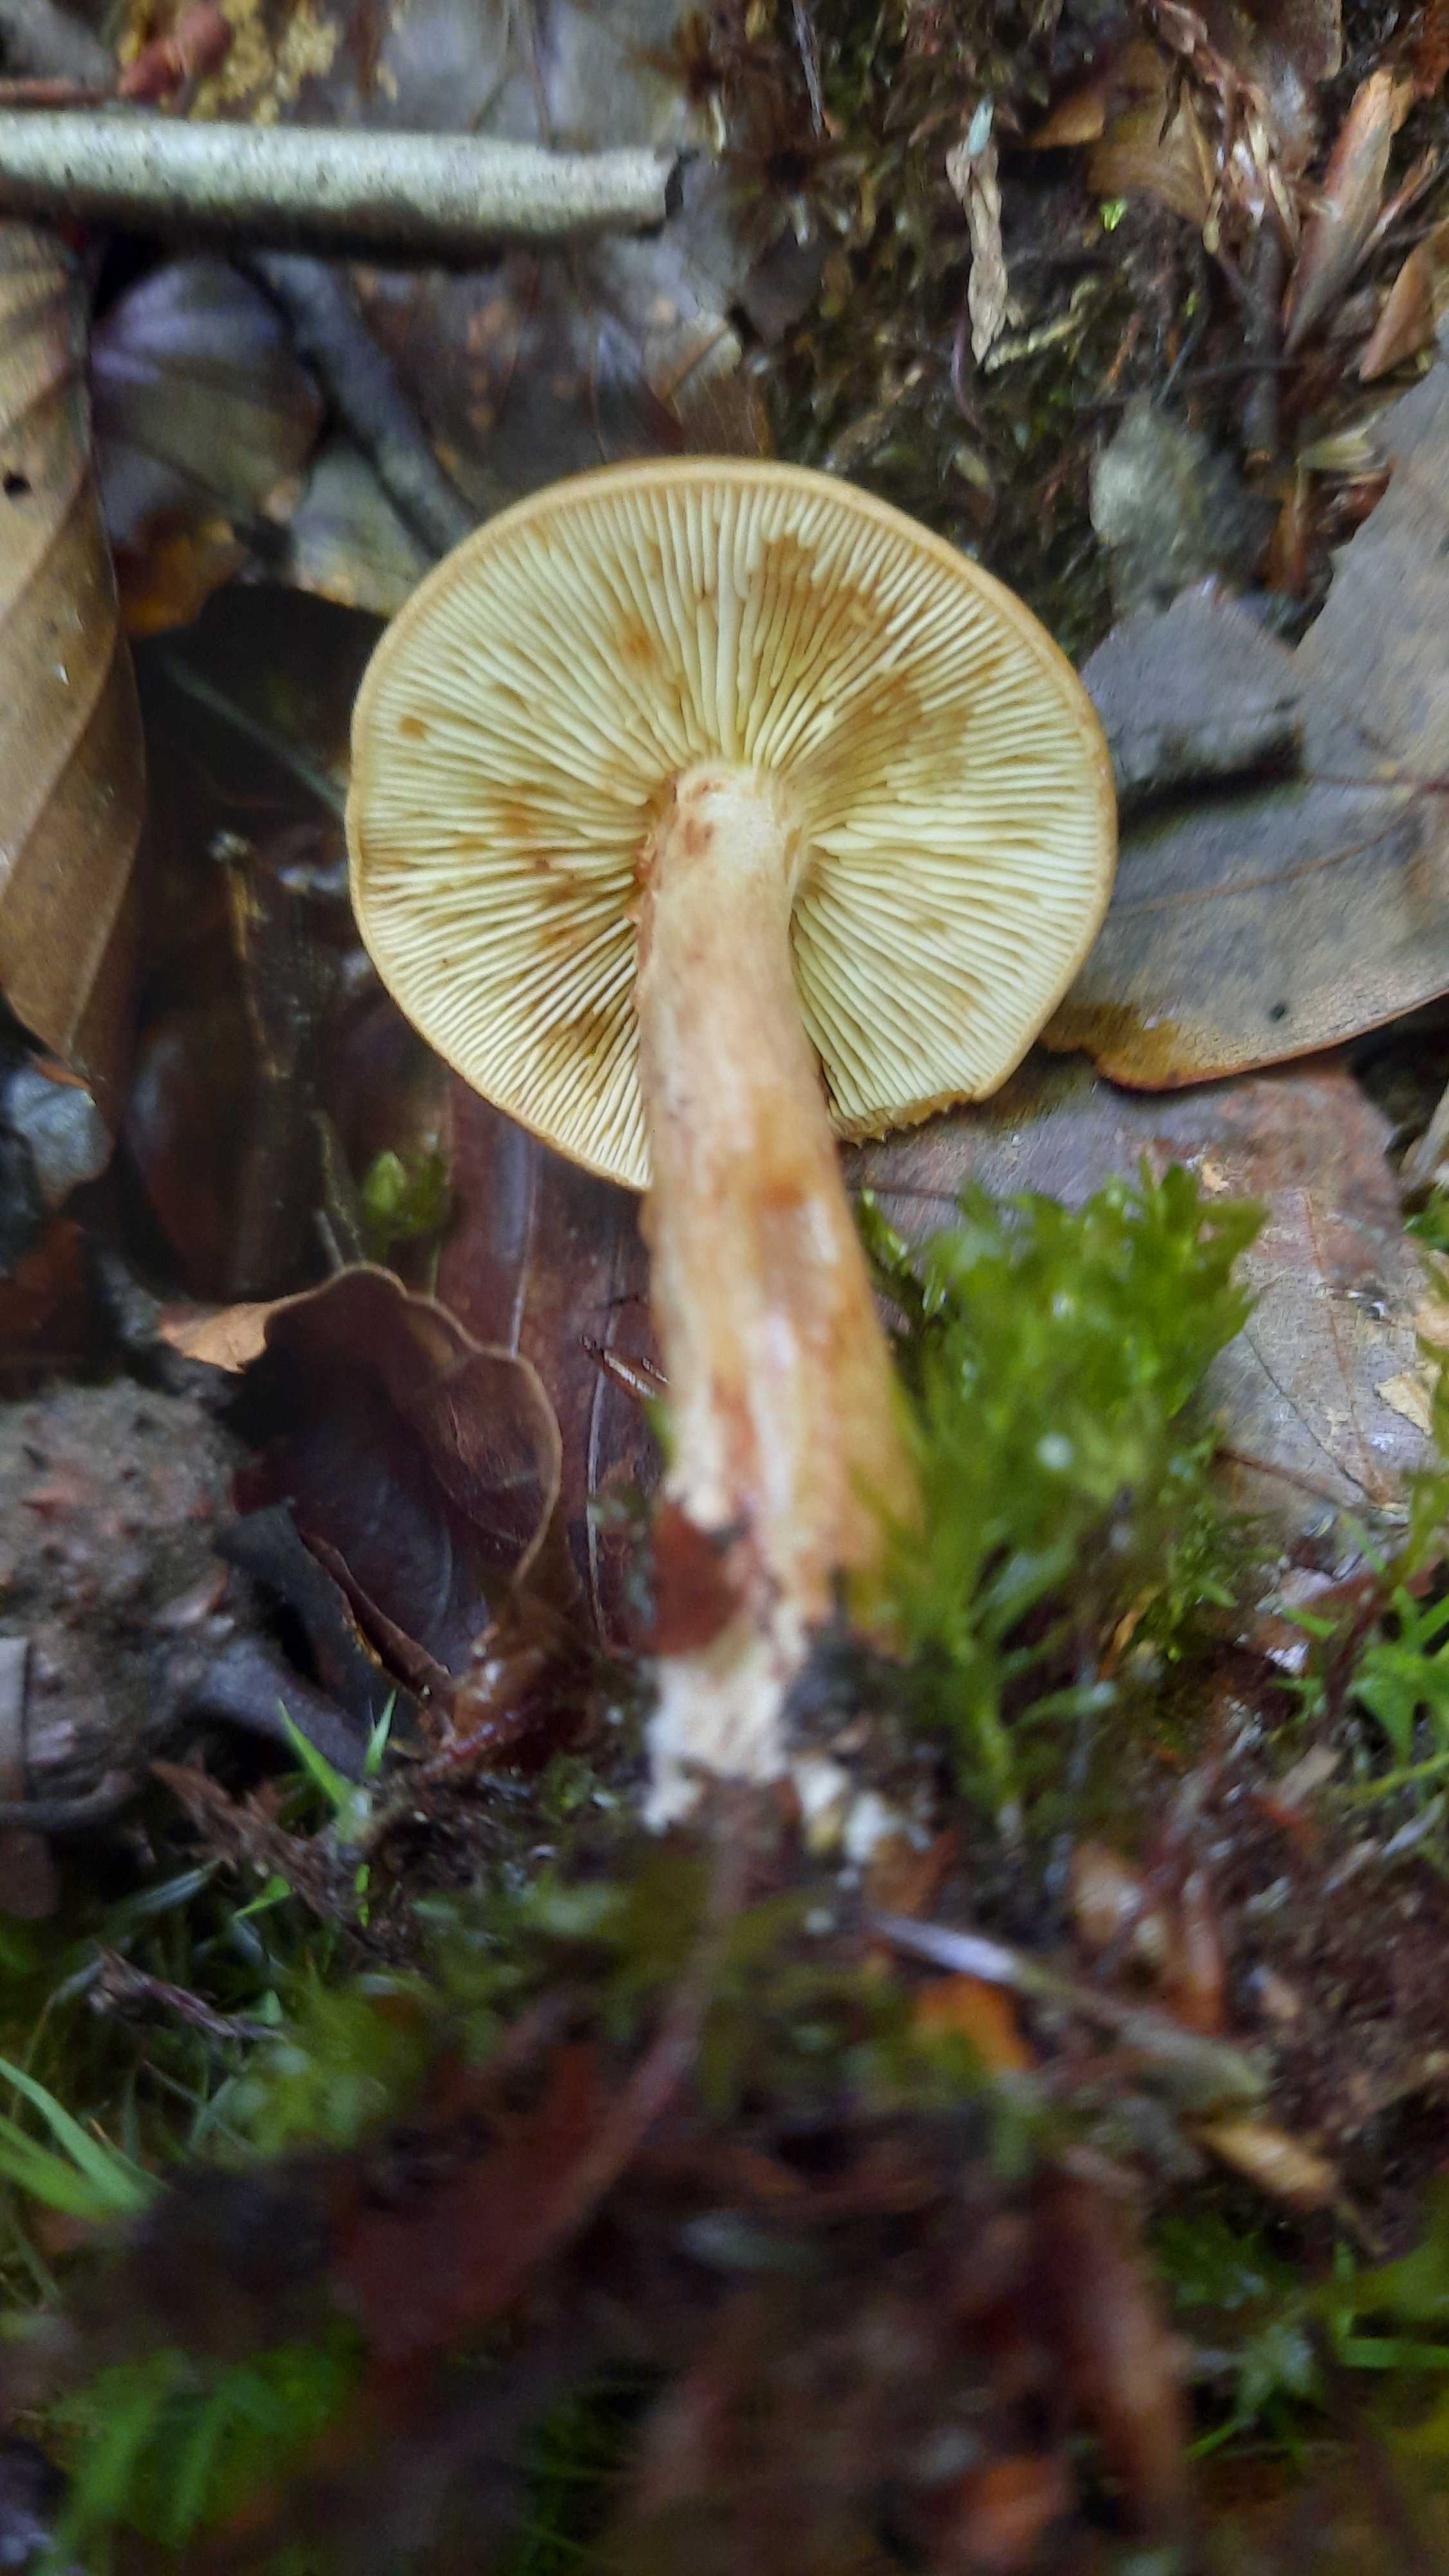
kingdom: Fungi
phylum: Basidiomycota
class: Agaricomycetes
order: Agaricales
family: Tricholomataceae
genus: Tricholoma
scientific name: Tricholoma ustale
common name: sveden ridderhat
